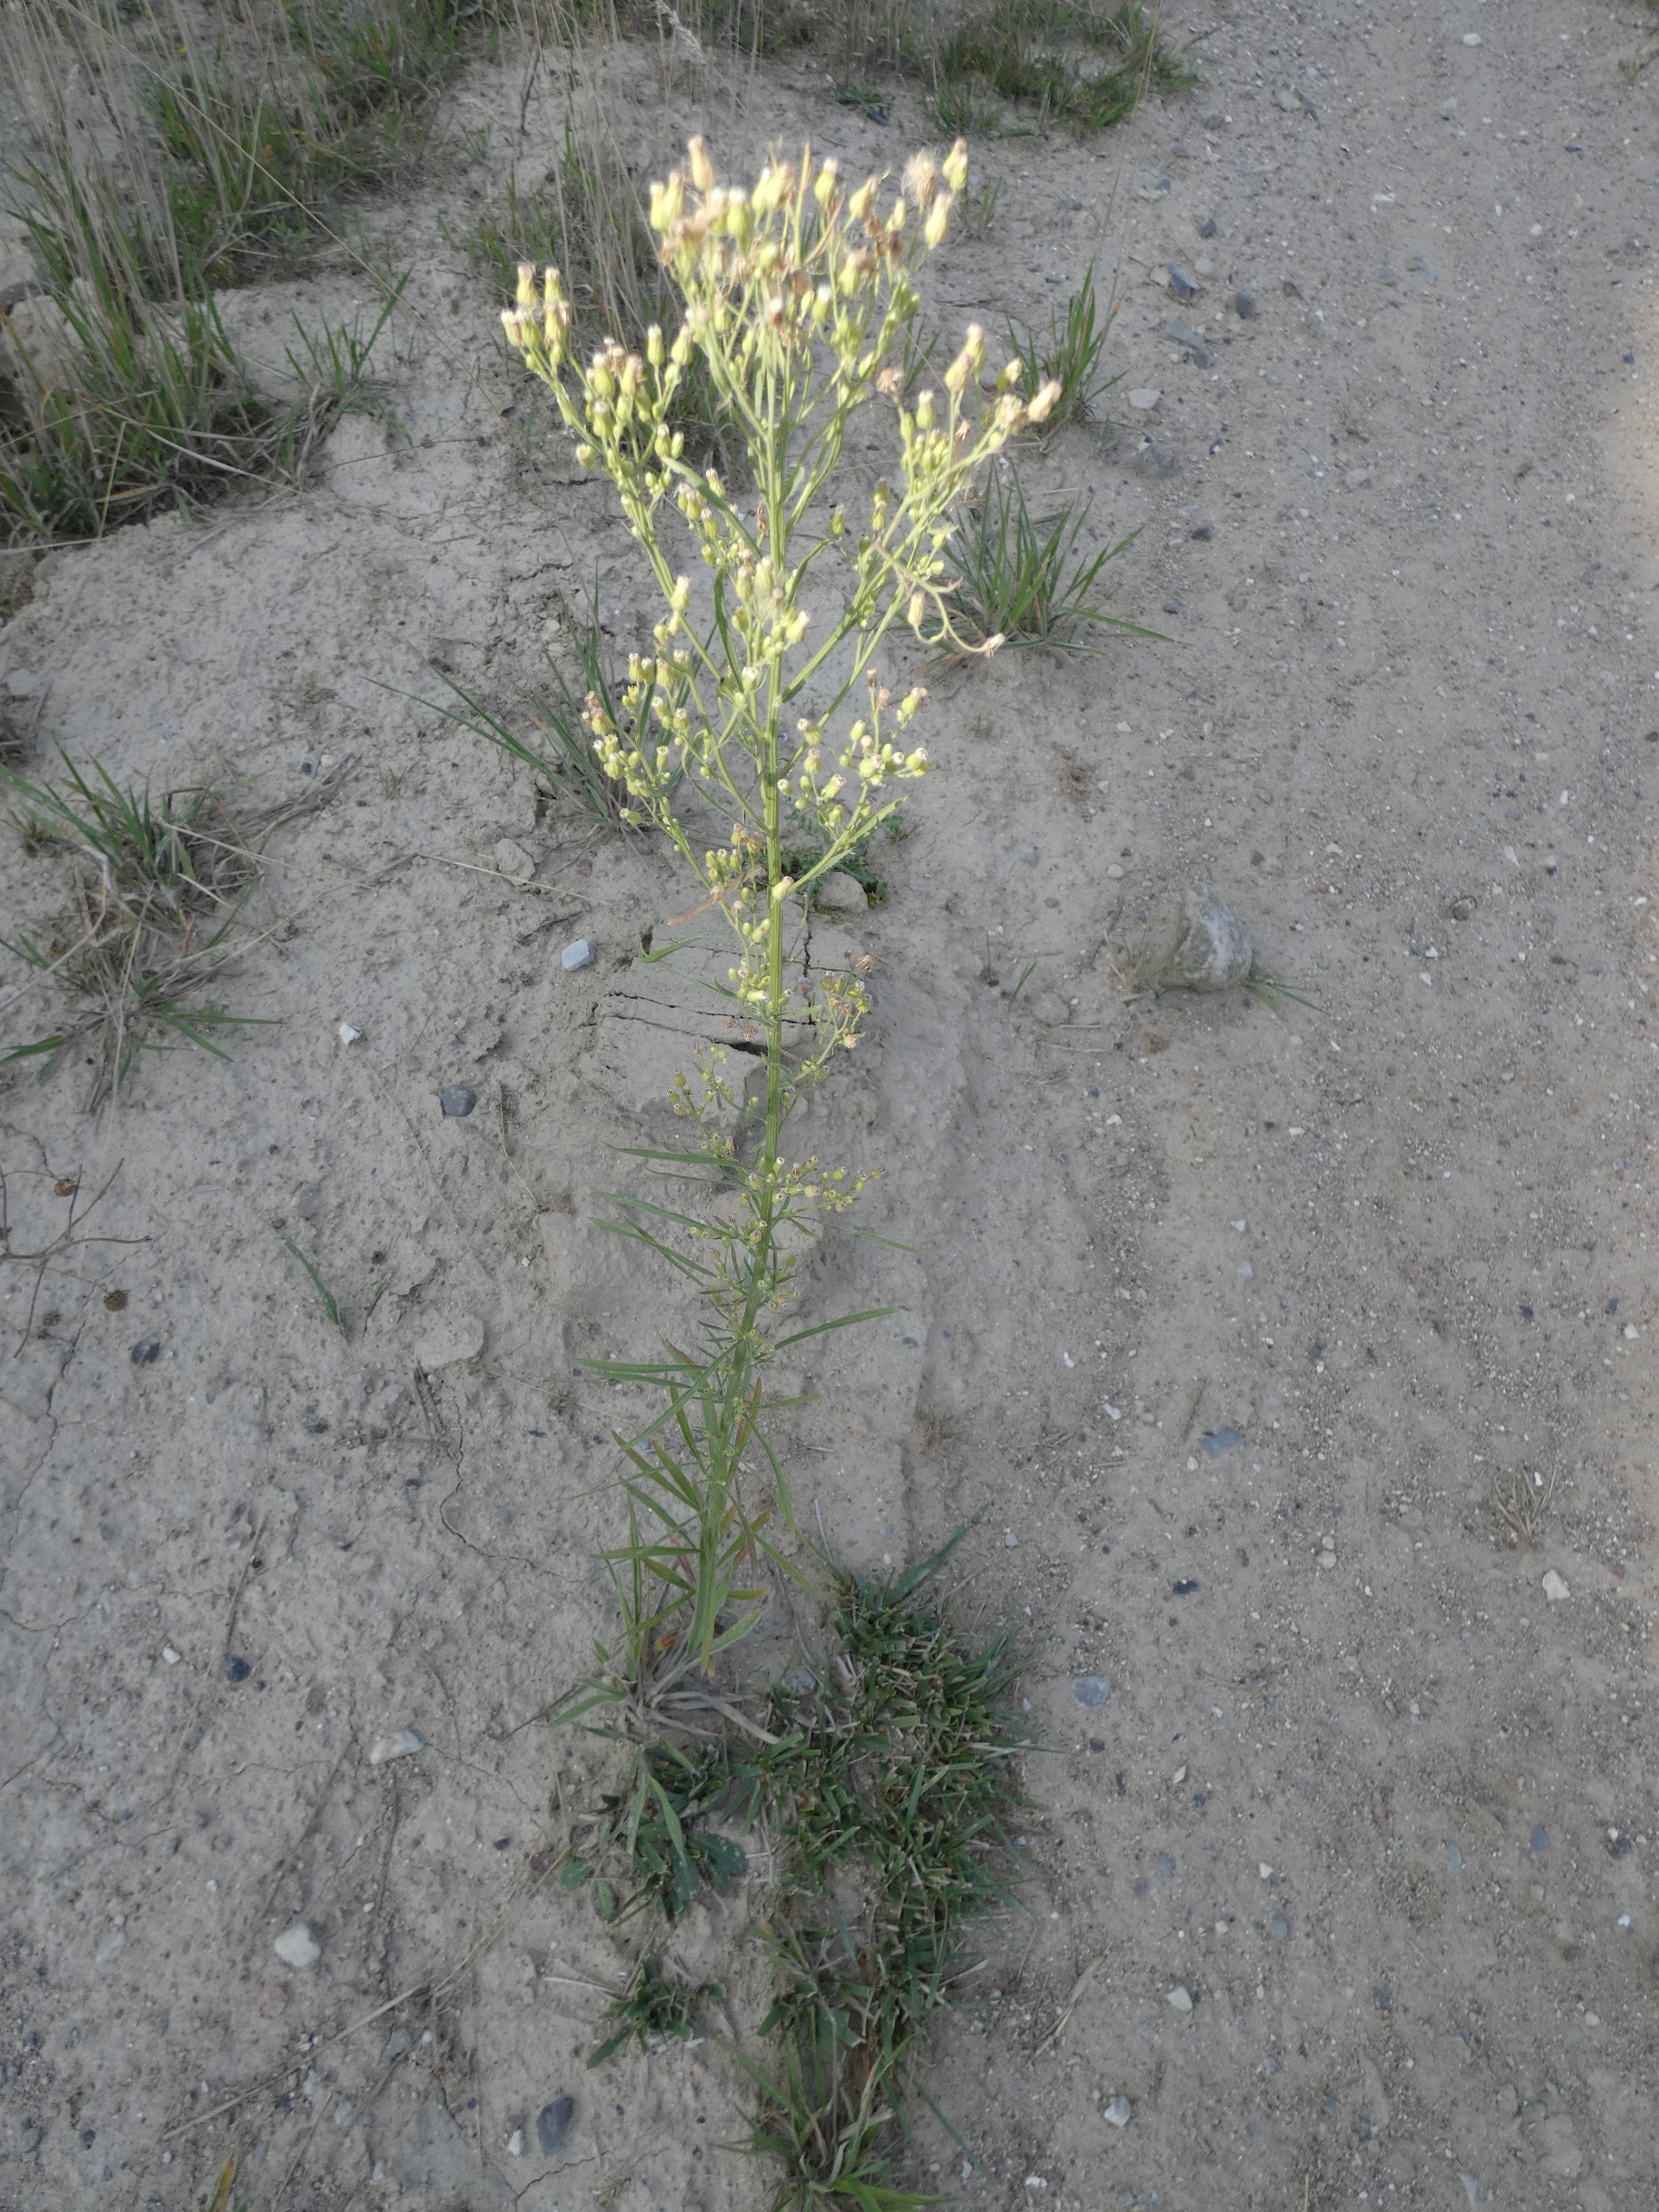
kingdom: Plantae
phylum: Tracheophyta
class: Magnoliopsida
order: Asterales
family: Asteraceae
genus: Erigeron
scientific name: Erigeron canadensis
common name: Kanadisk bakkestjerne
